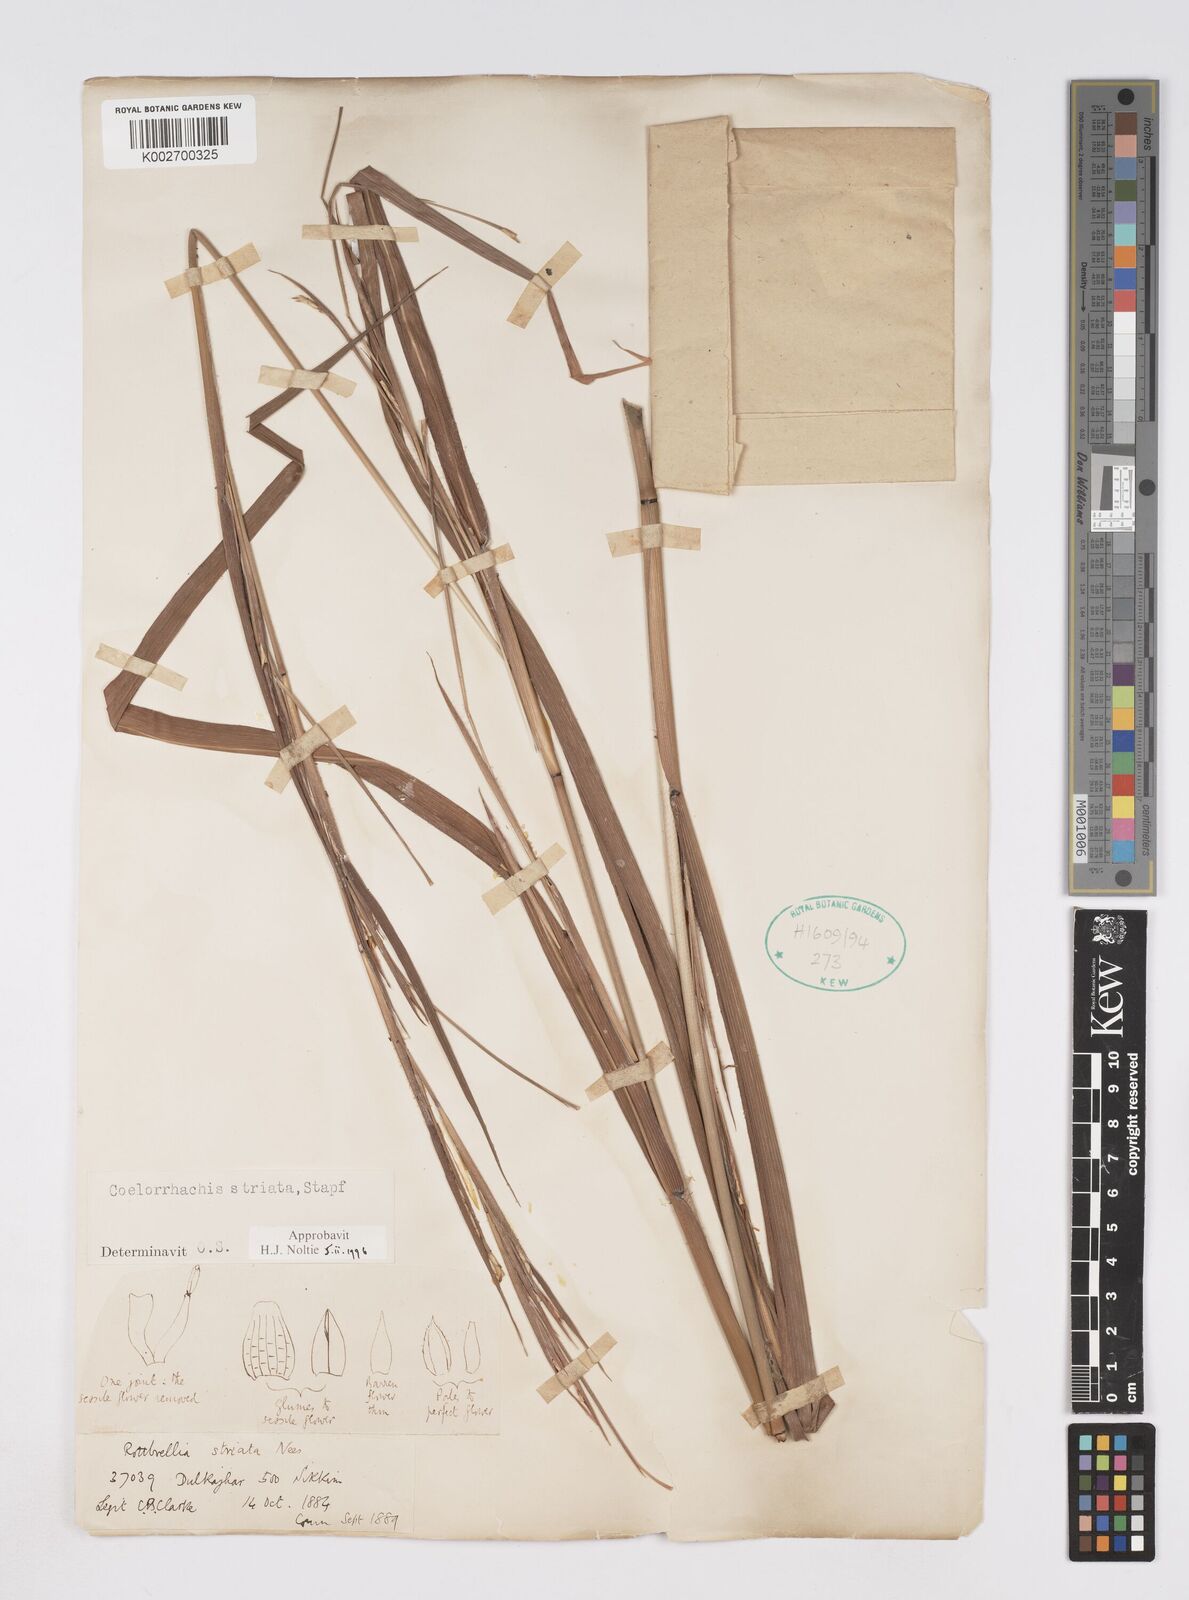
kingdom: Plantae
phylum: Tracheophyta
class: Liliopsida
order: Poales
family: Poaceae
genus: Rottboellia
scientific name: Rottboellia striata
